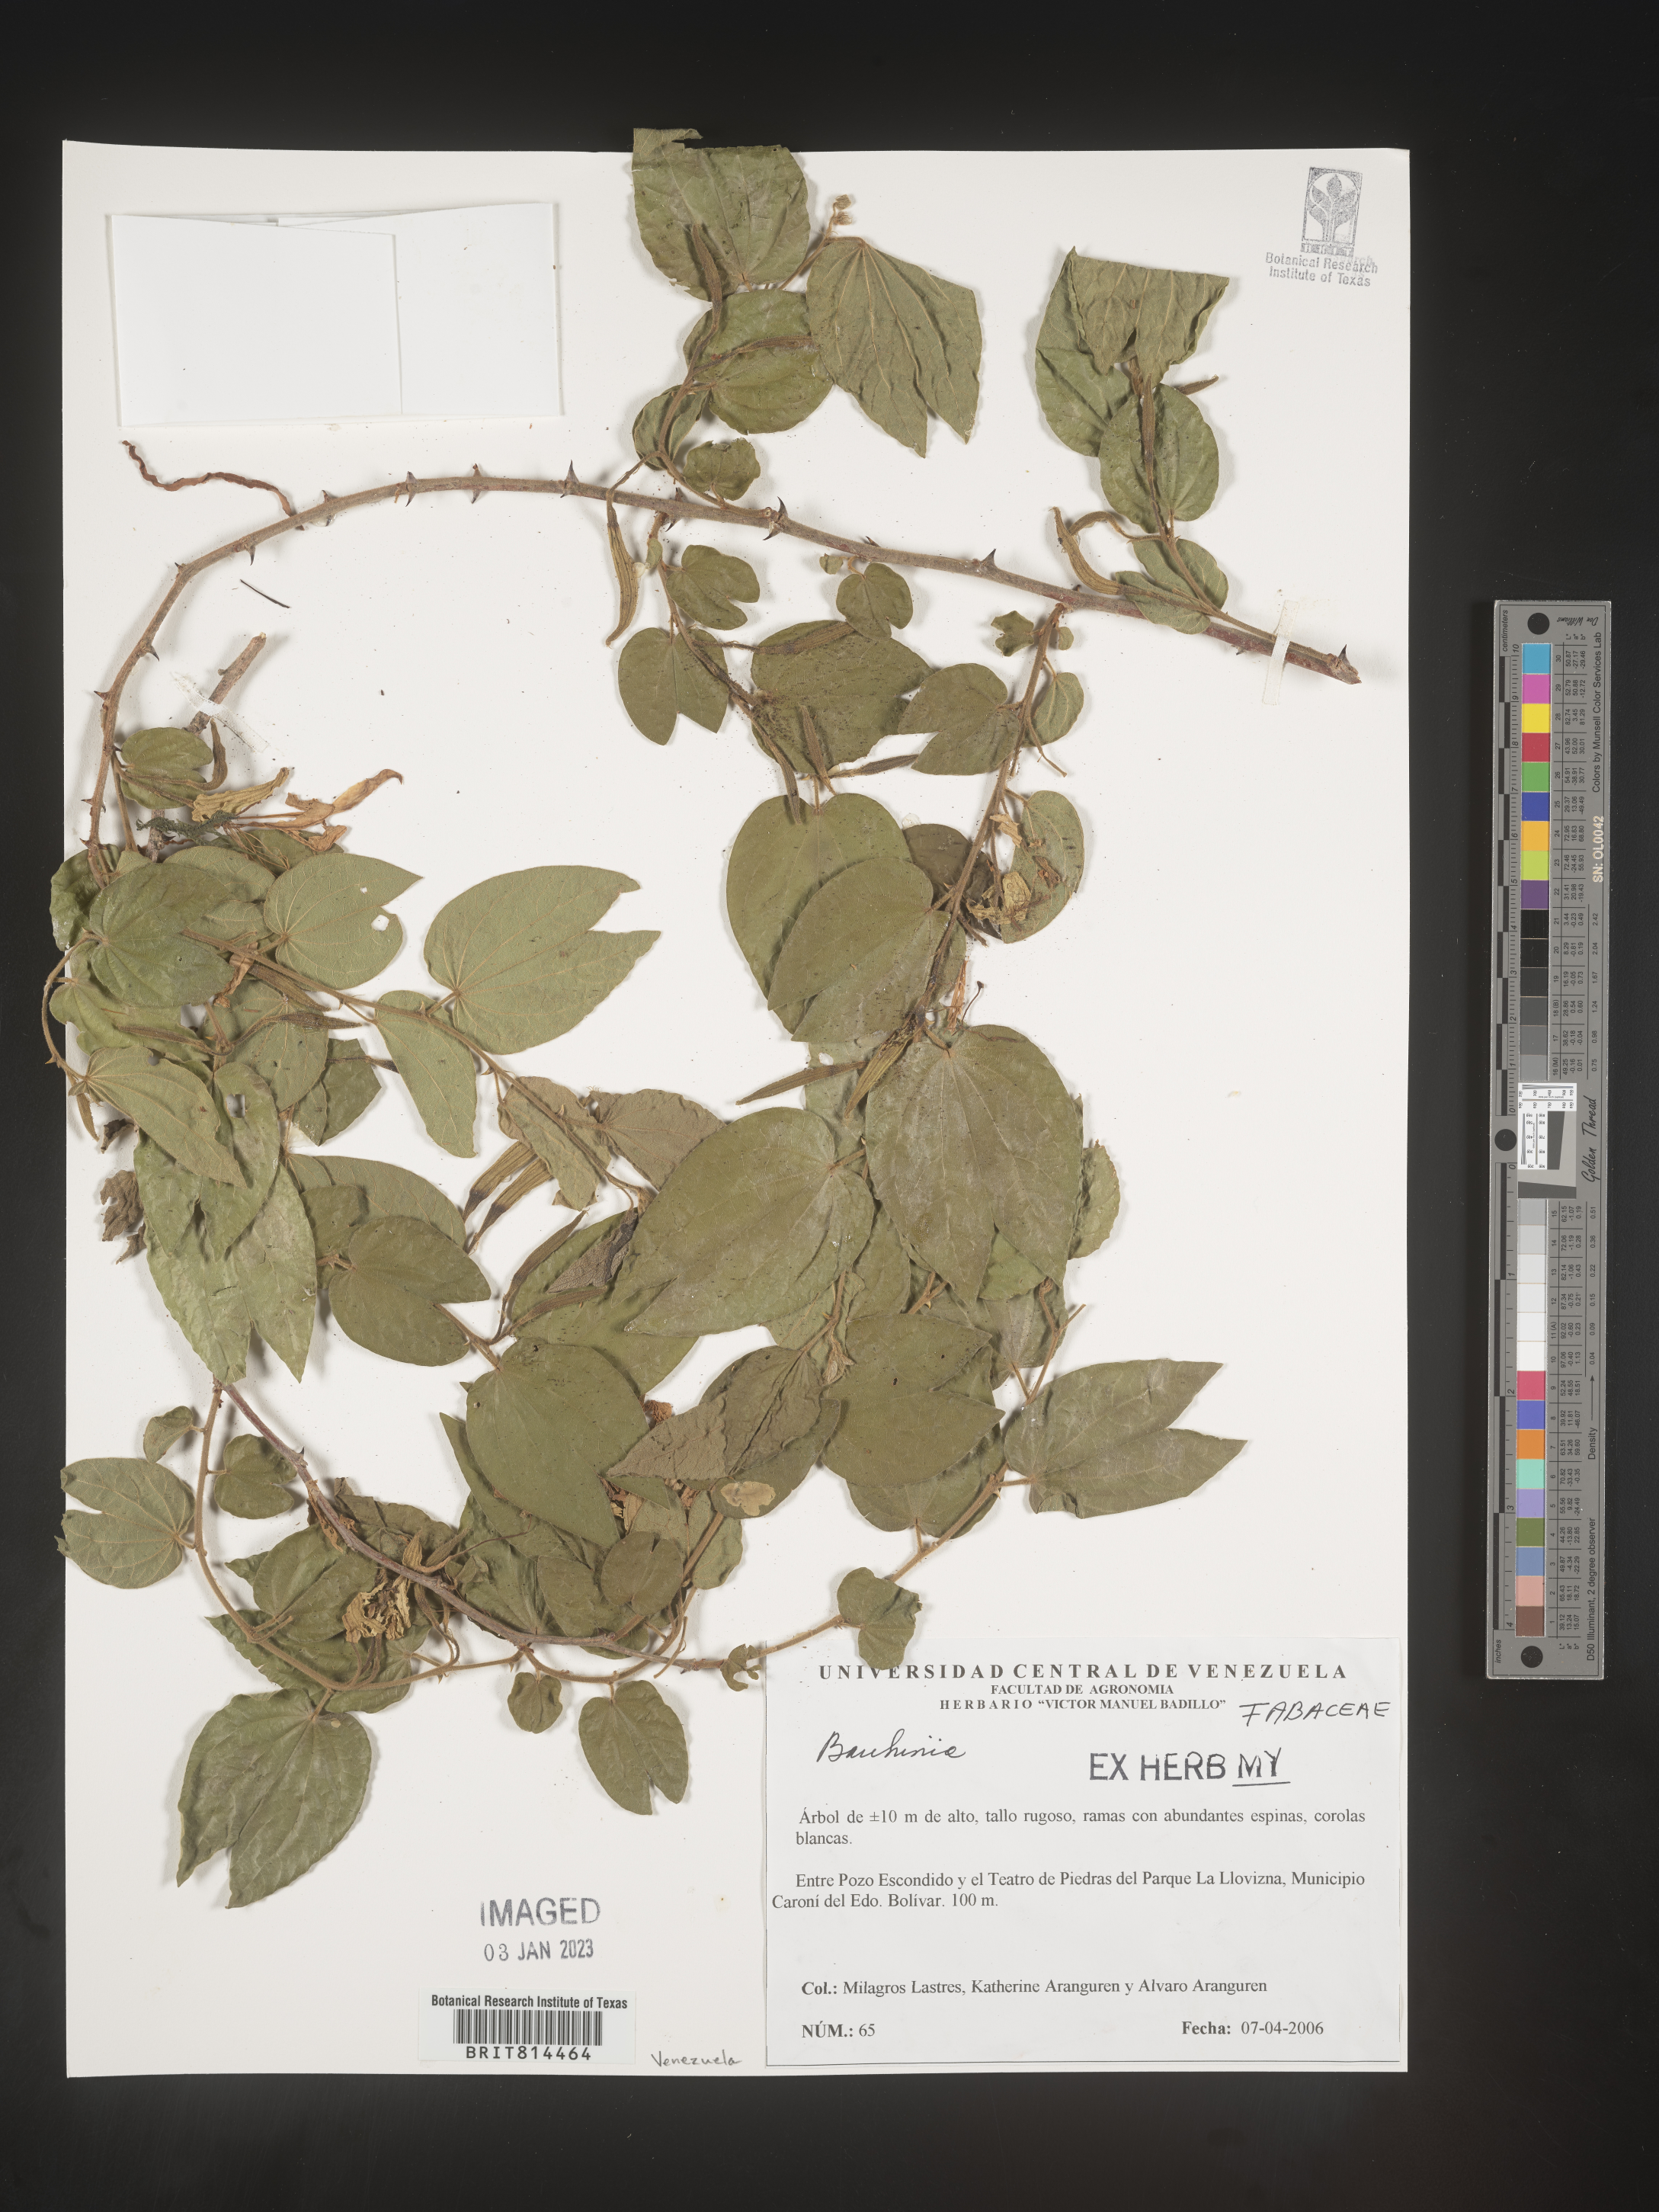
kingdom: Plantae
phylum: Tracheophyta
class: Magnoliopsida
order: Fabales
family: Fabaceae
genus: Bauhinia
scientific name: Bauhinia
